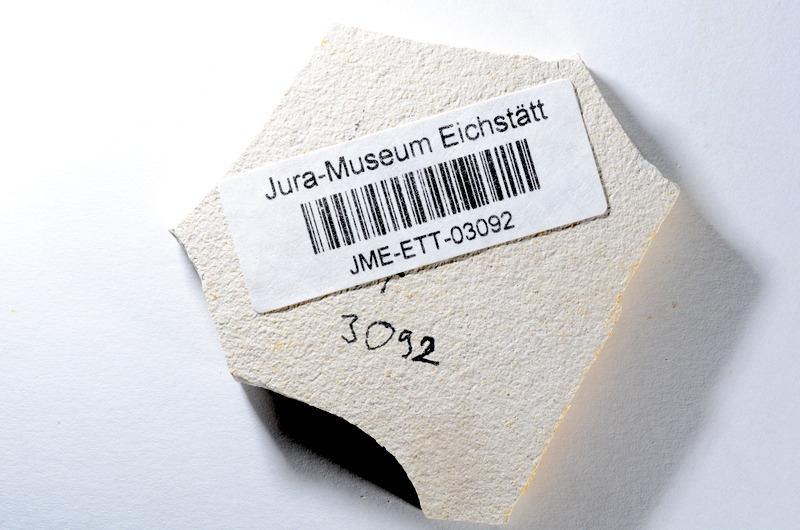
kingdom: Animalia
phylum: Chordata
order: Salmoniformes
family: Orthogonikleithridae
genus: Orthogonikleithrus
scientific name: Orthogonikleithrus hoelli
